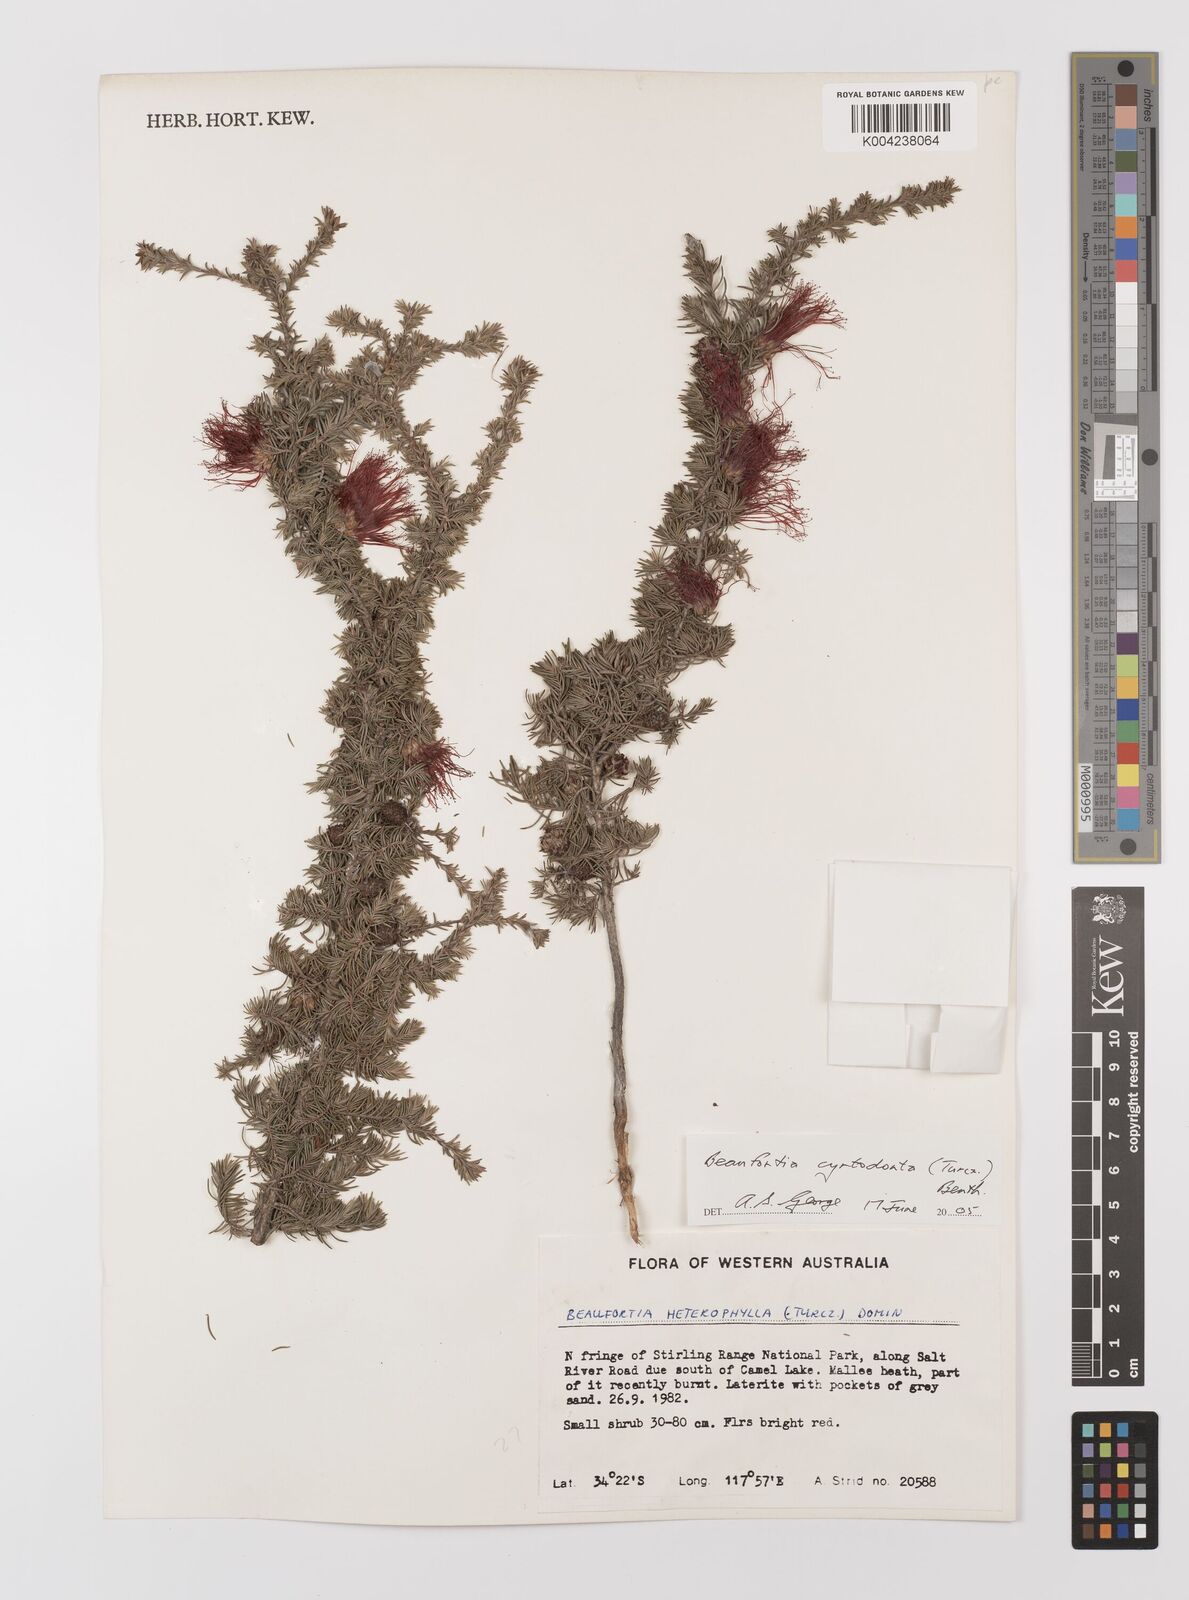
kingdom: Plantae
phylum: Tracheophyta
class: Magnoliopsida
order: Myrtales
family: Myrtaceae
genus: Melaleuca
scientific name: Melaleuca cyrtodonta
